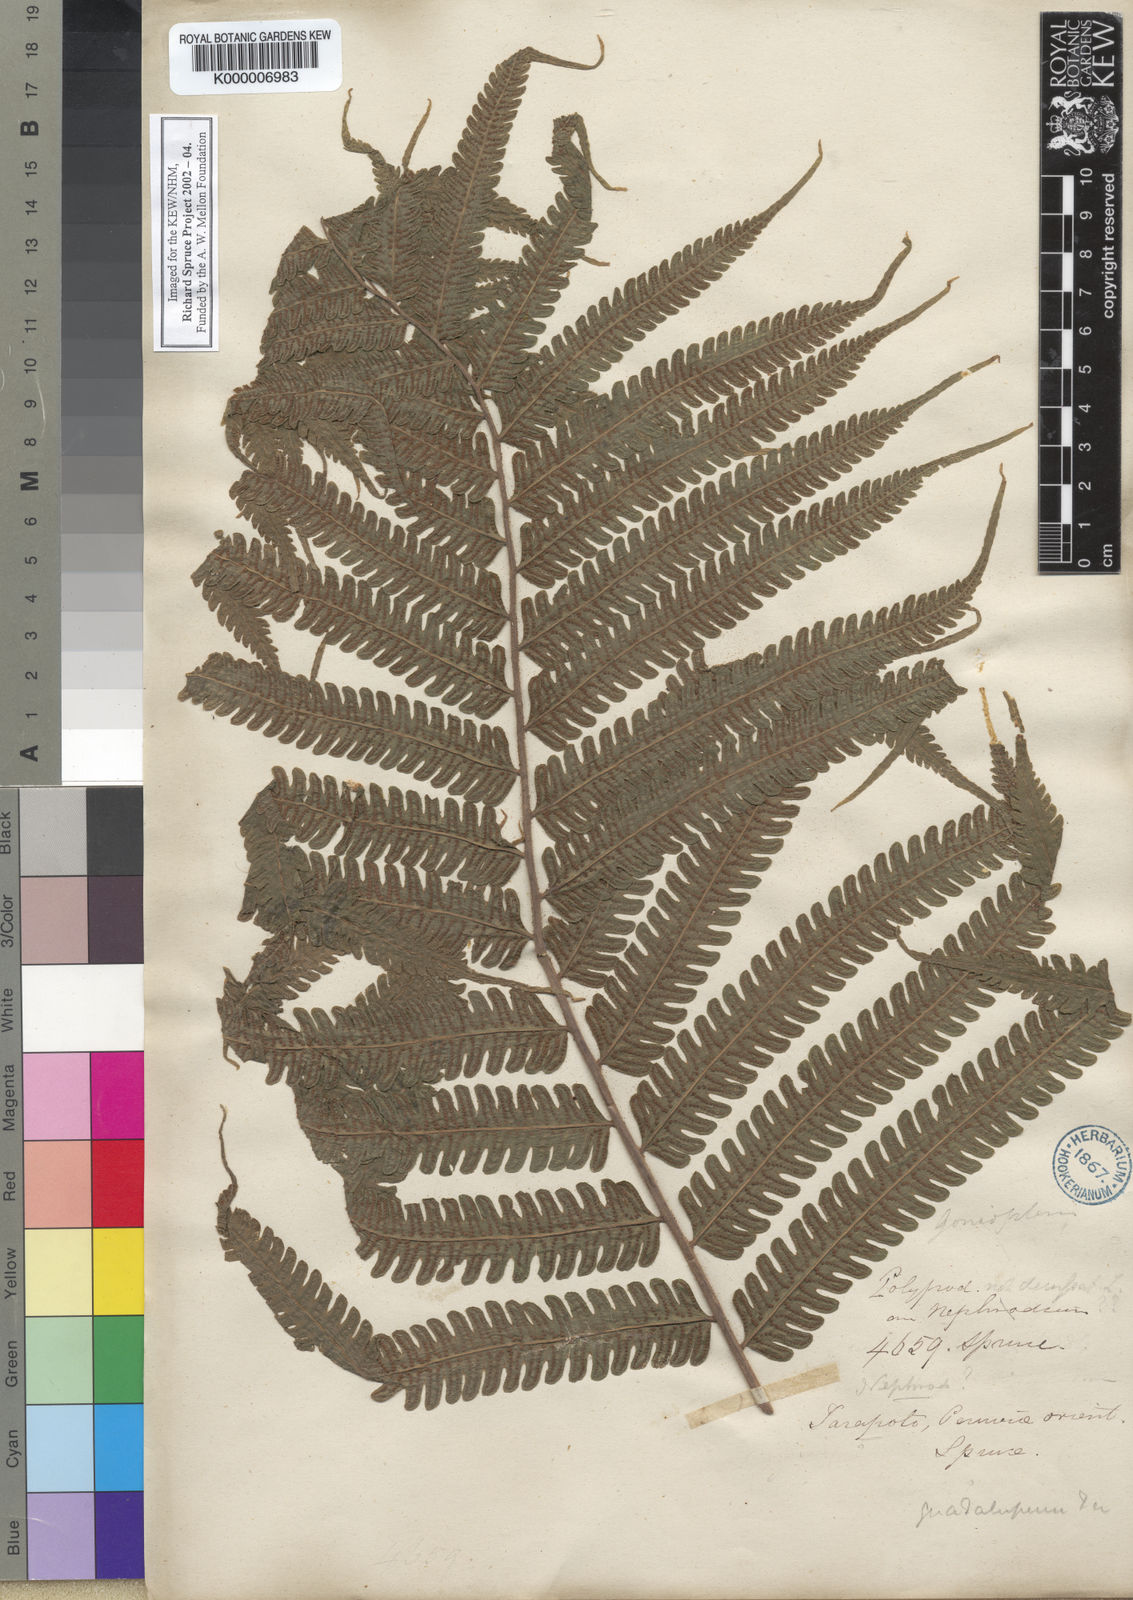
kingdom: Plantae
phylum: Tracheophyta
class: Polypodiopsida
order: Polypodiales
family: Thelypteridaceae
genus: Goniopteris
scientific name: Goniopteris pennata
